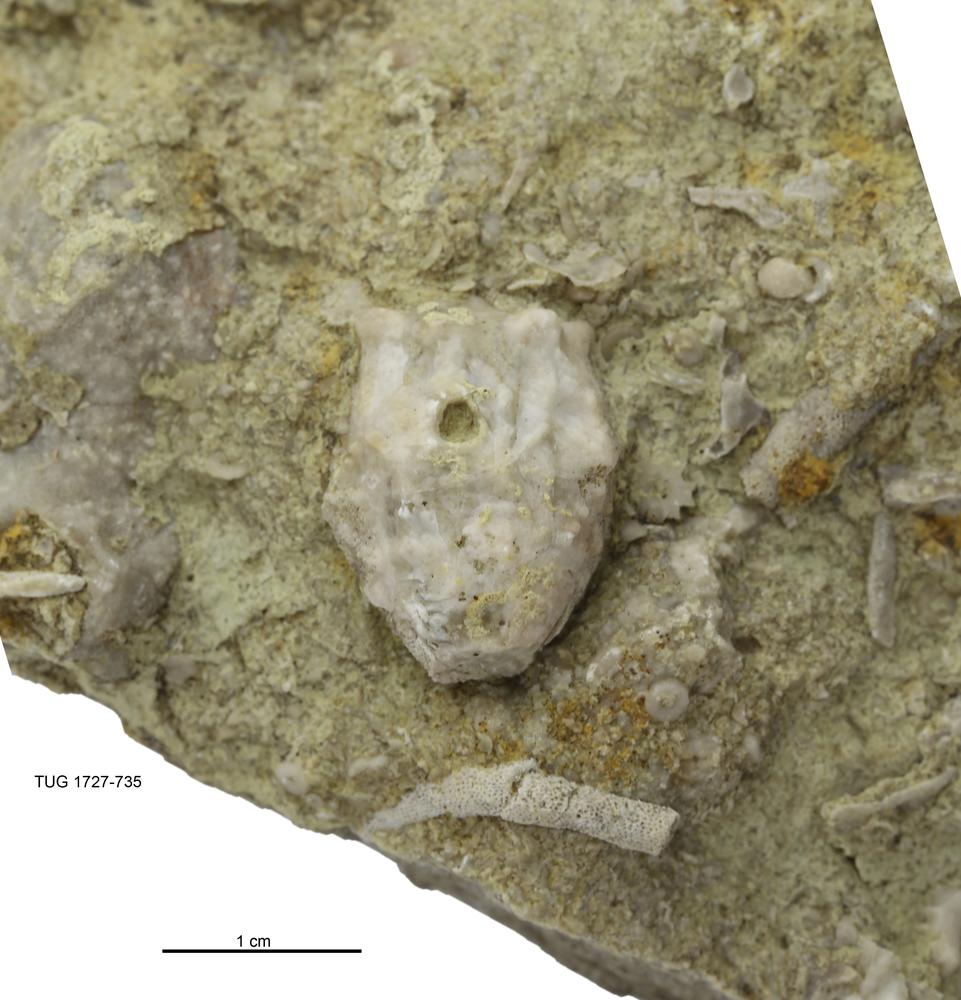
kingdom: Animalia
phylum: Echinodermata
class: Crinoidea
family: Hemicosmitidae
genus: Hemicosmites
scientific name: Hemicosmites
